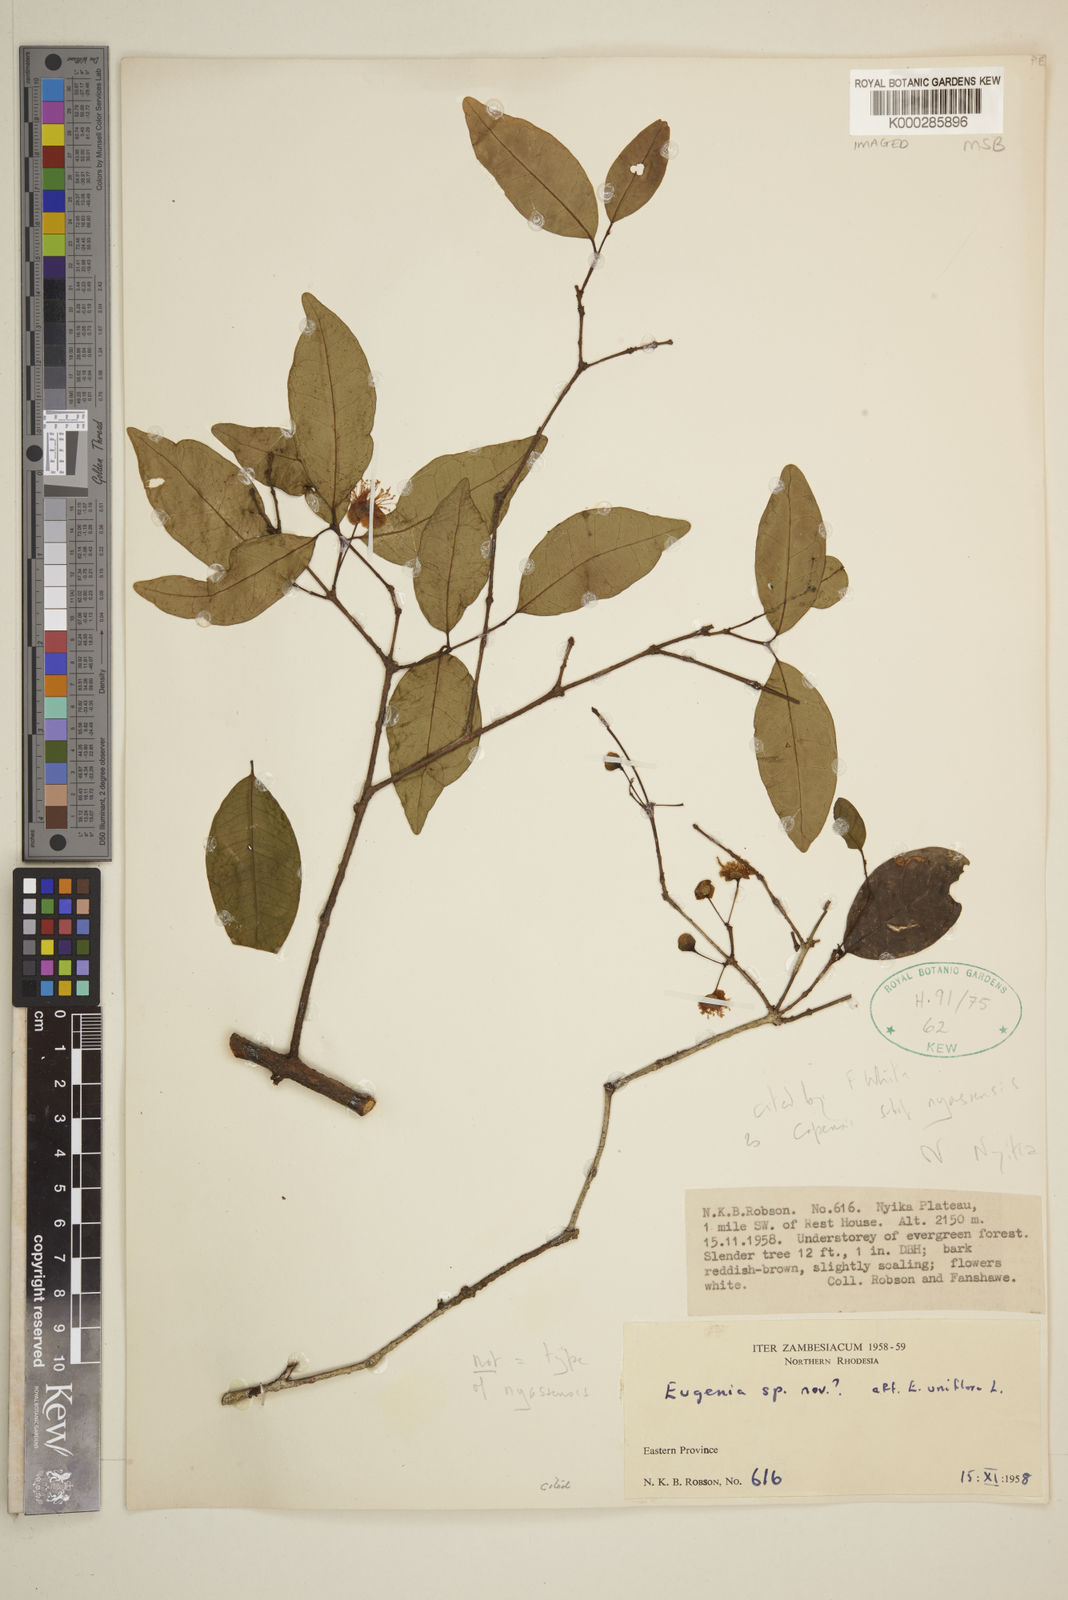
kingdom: Plantae
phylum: Tracheophyta
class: Magnoliopsida
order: Myrtales
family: Myrtaceae
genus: Eugenia
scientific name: Eugenia capensis
